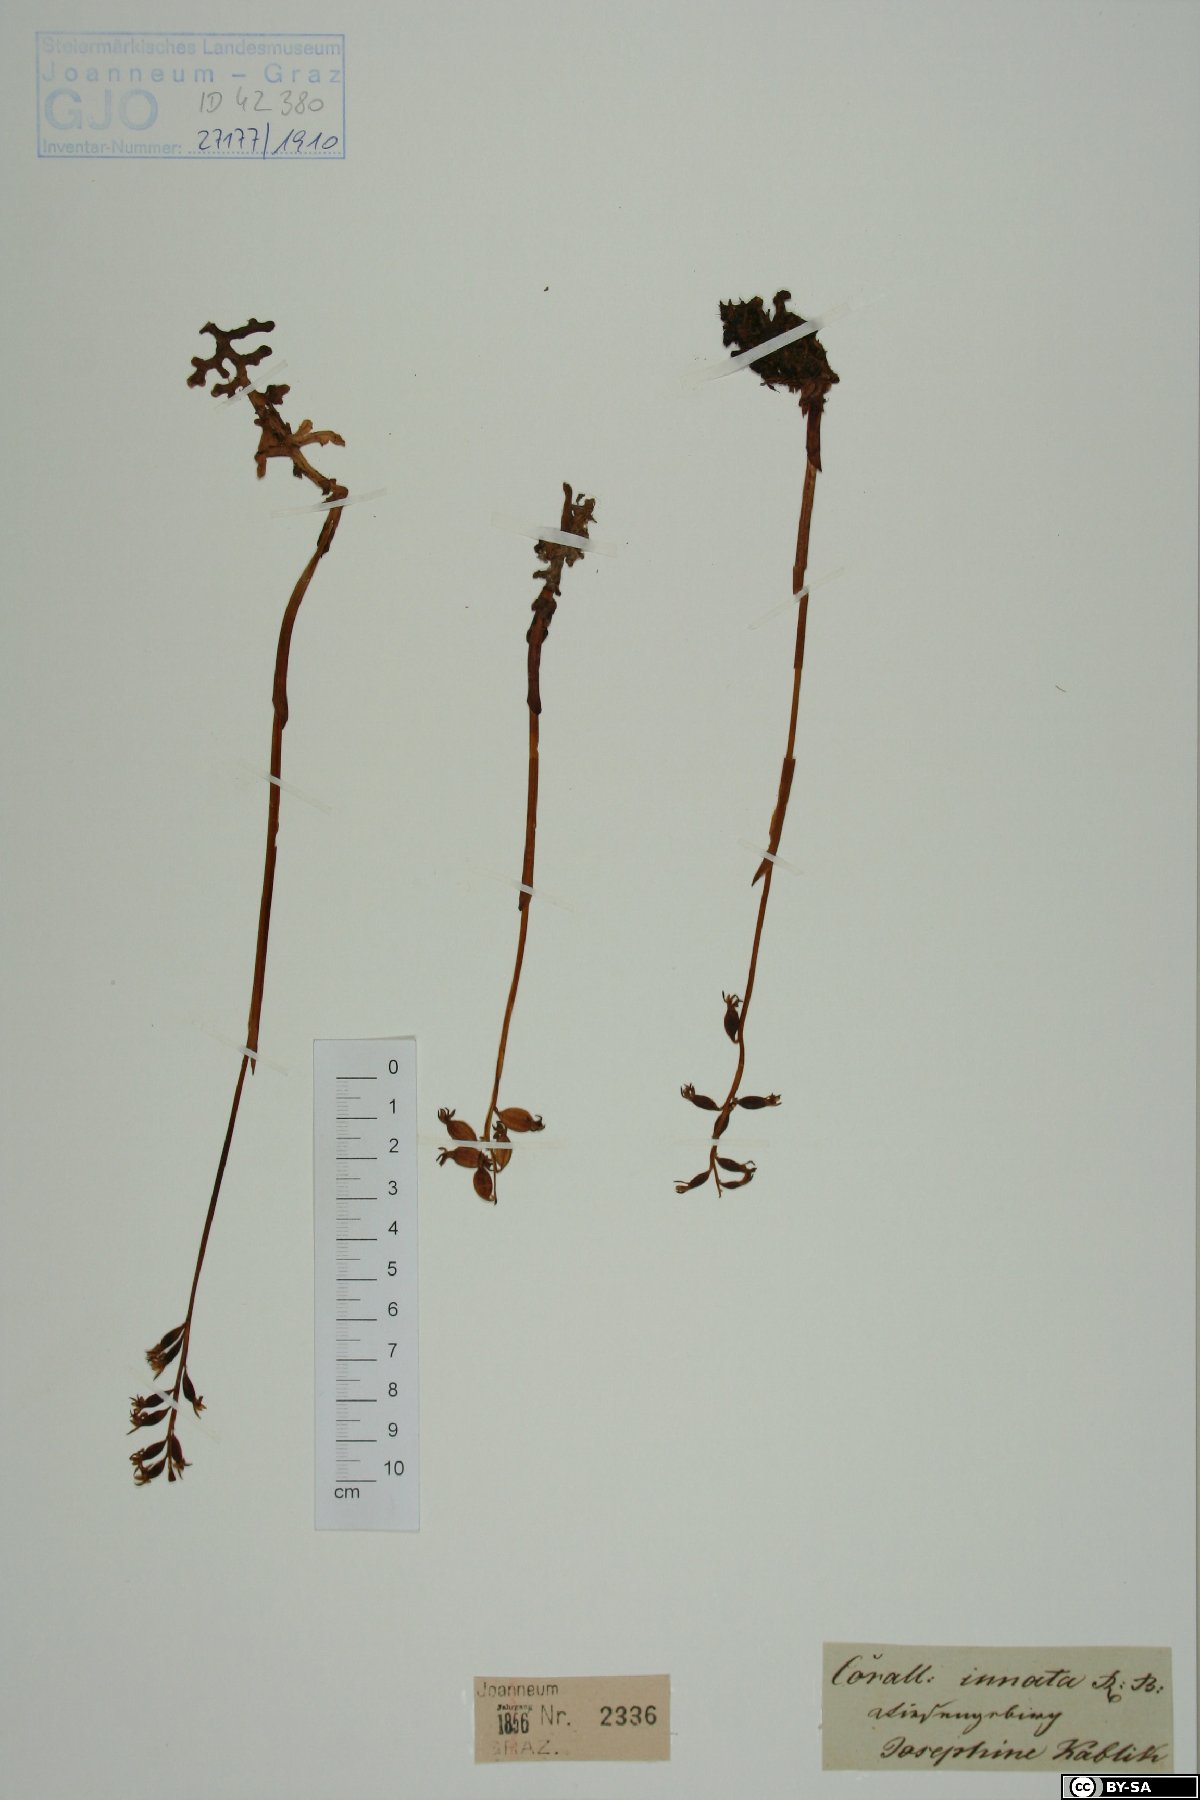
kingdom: Plantae
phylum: Tracheophyta
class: Liliopsida
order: Asparagales
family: Orchidaceae
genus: Corallorhiza
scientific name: Corallorhiza trifida
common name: Yellow coralroot
